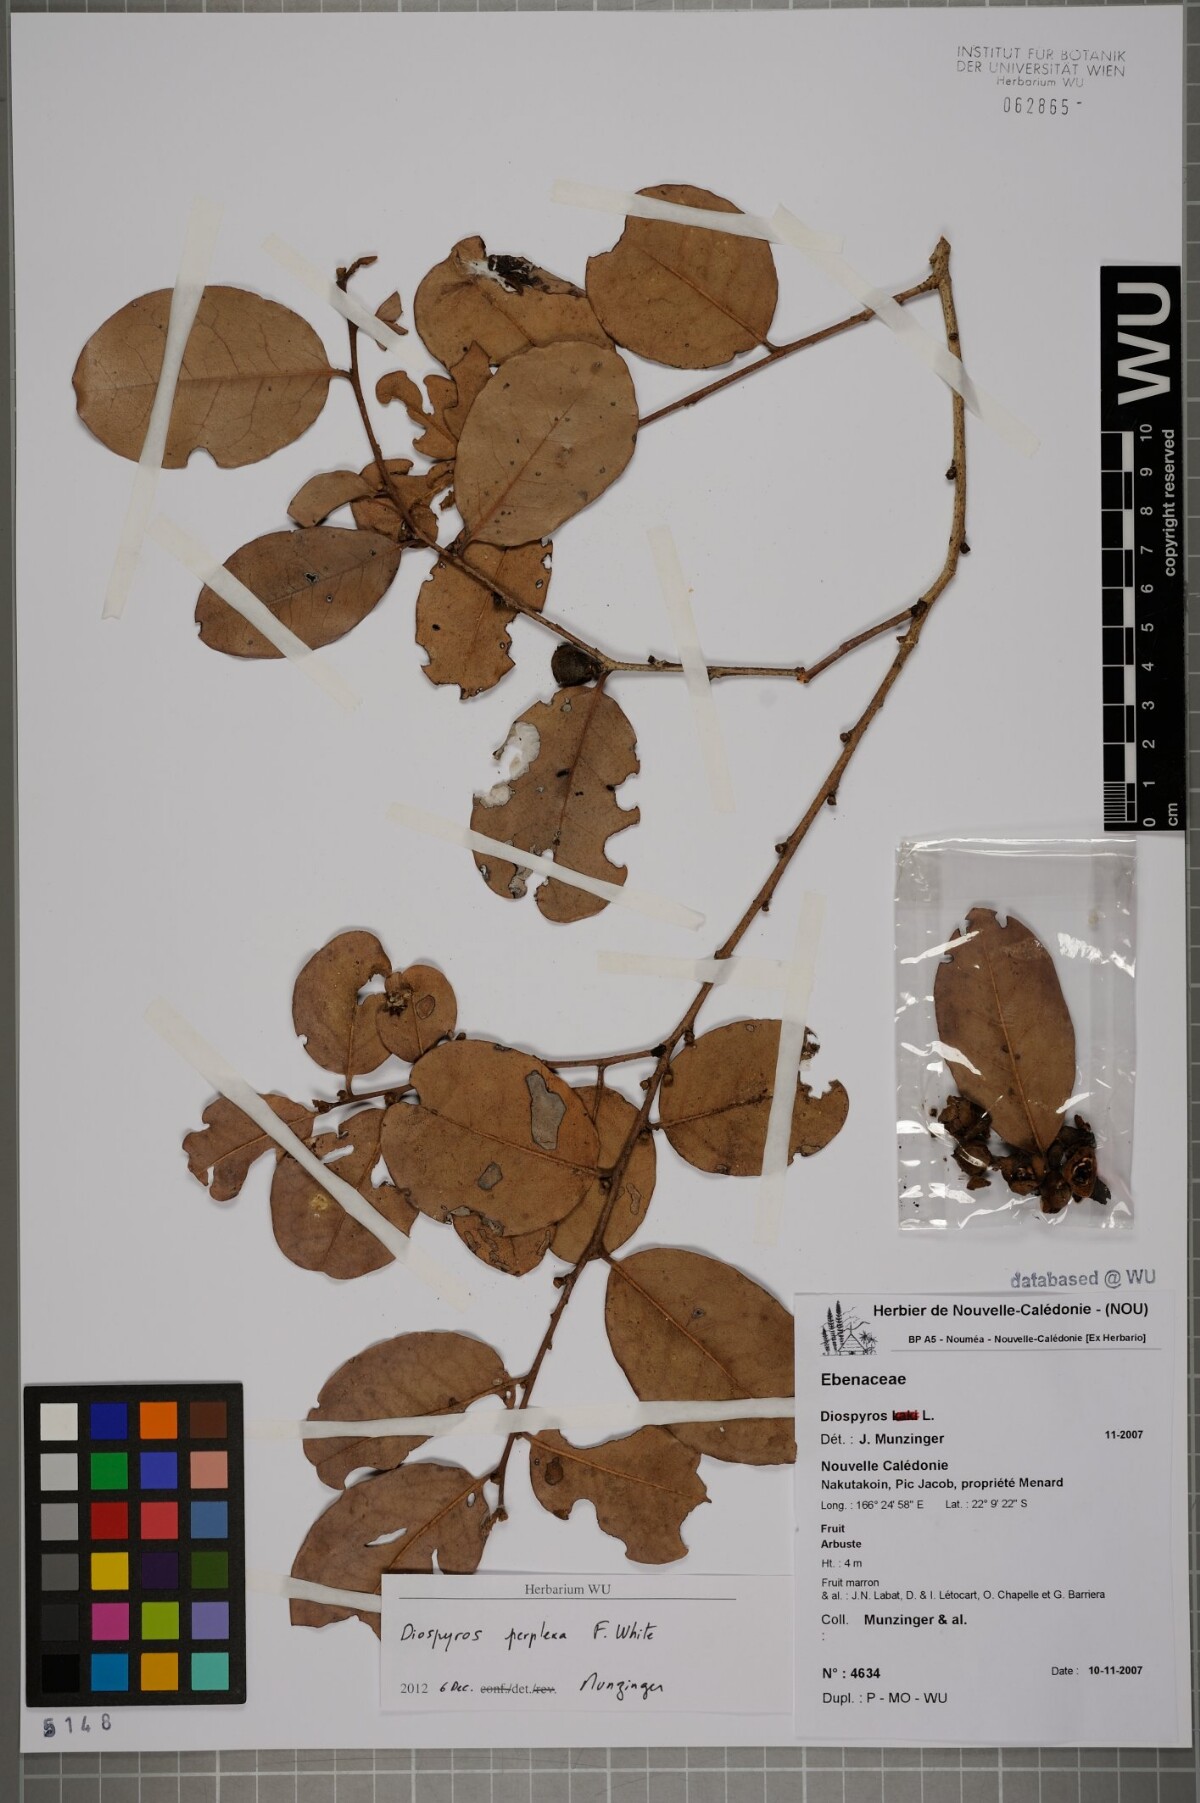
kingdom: Plantae
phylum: Tracheophyta
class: Magnoliopsida
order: Ericales
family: Ebenaceae
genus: Diospyros
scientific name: Diospyros perplexa
